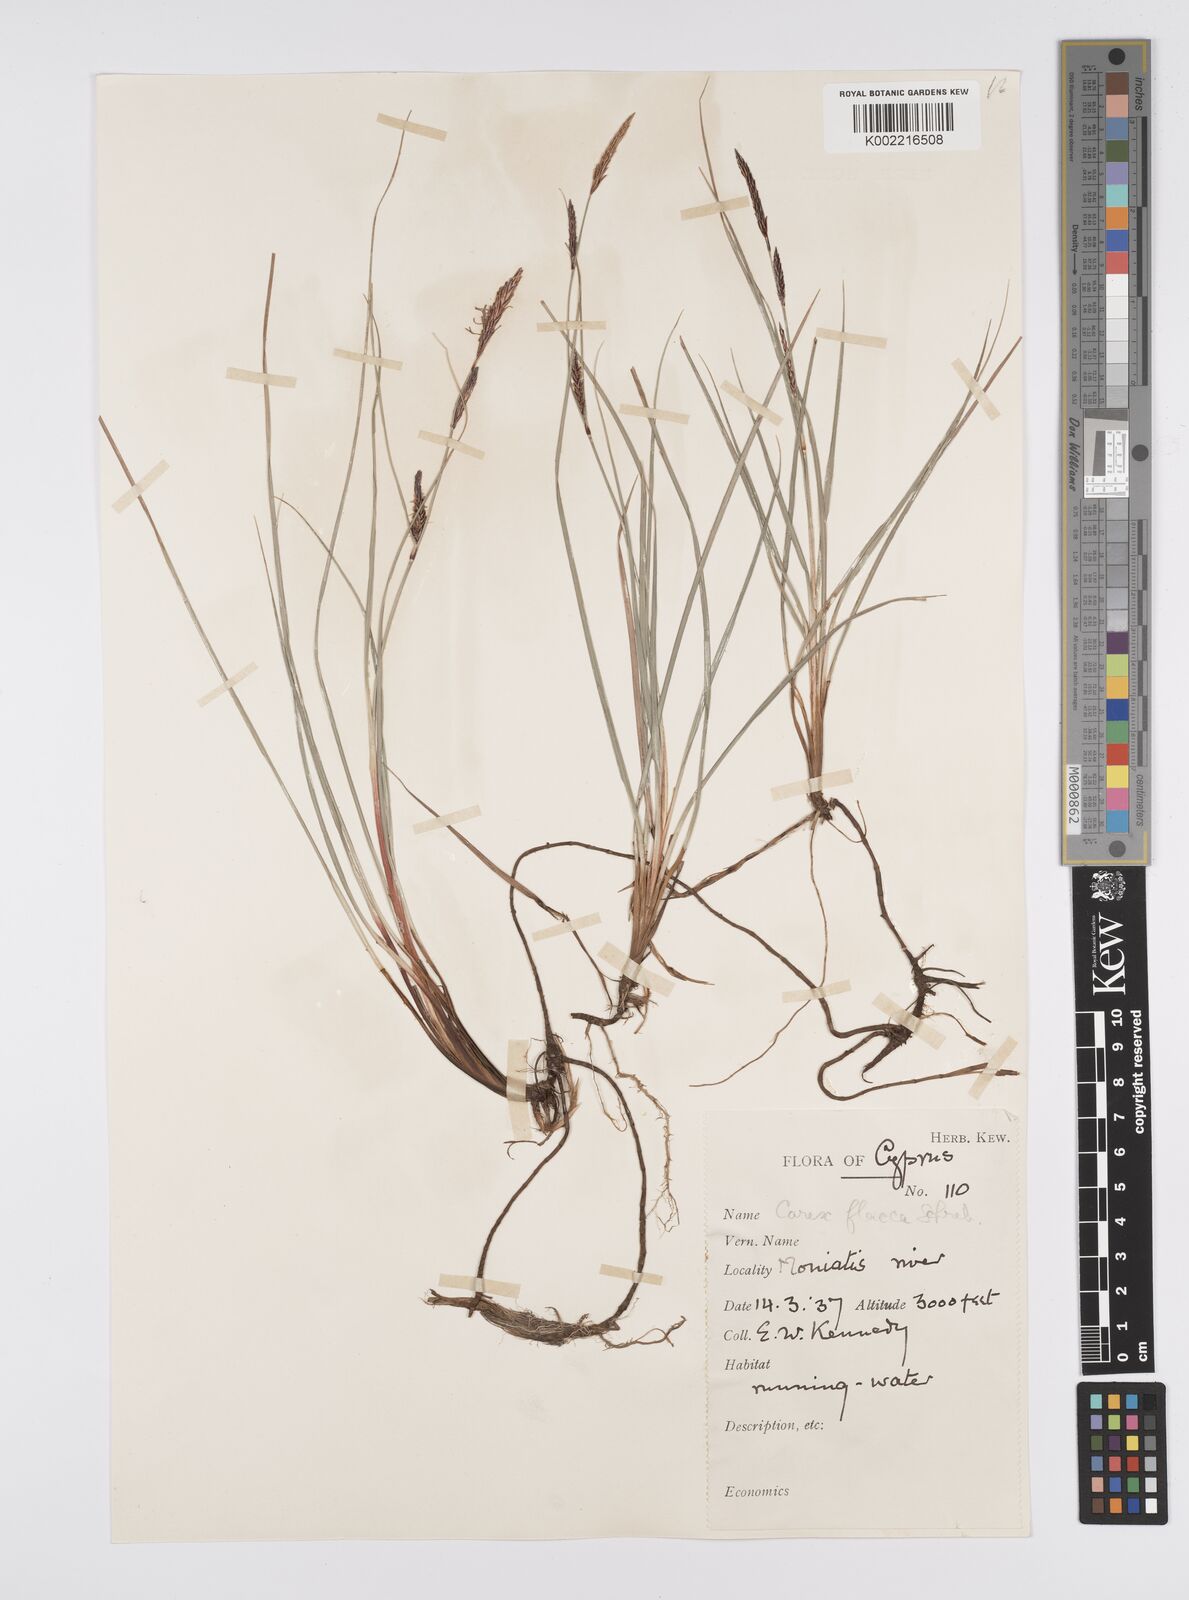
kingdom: Plantae
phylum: Tracheophyta
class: Liliopsida
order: Poales
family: Cyperaceae
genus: Carex
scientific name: Carex flacca
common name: Glaucous sedge
